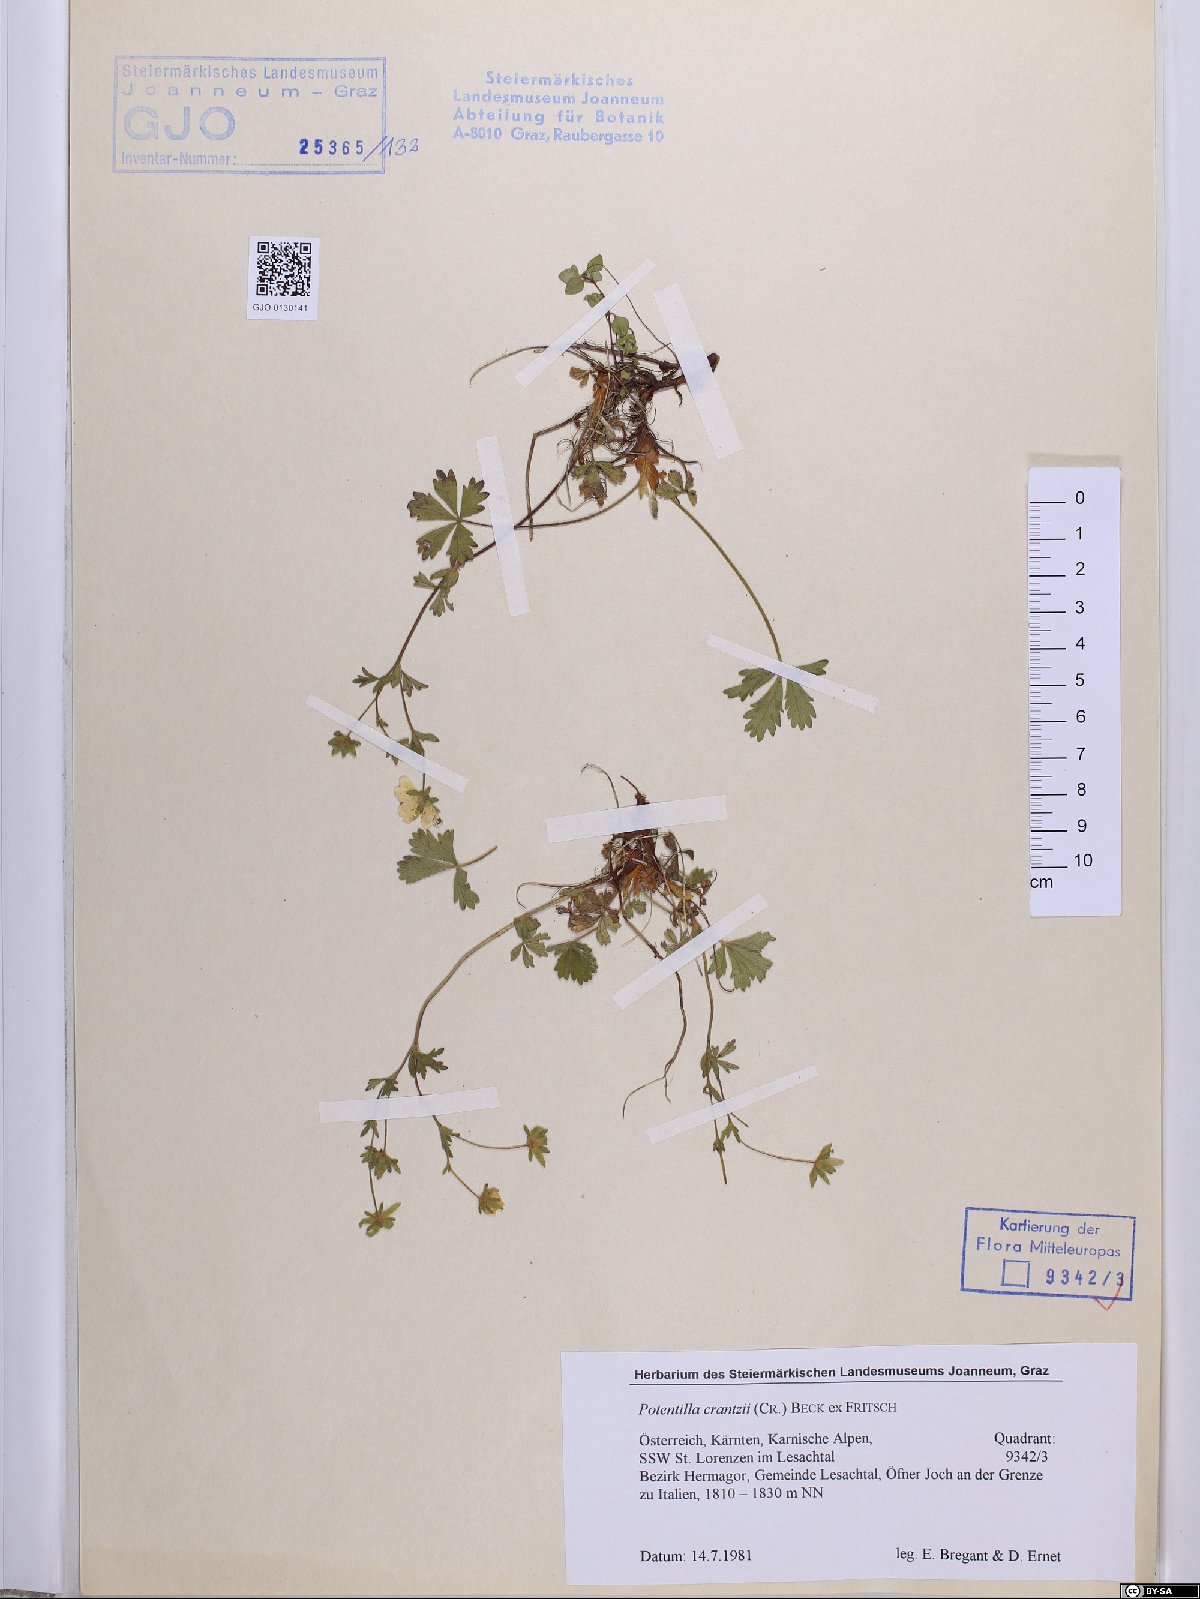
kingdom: Plantae
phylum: Tracheophyta
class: Magnoliopsida
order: Rosales
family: Rosaceae
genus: Potentilla
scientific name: Potentilla crantzii
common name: Alpine cinquefoil
